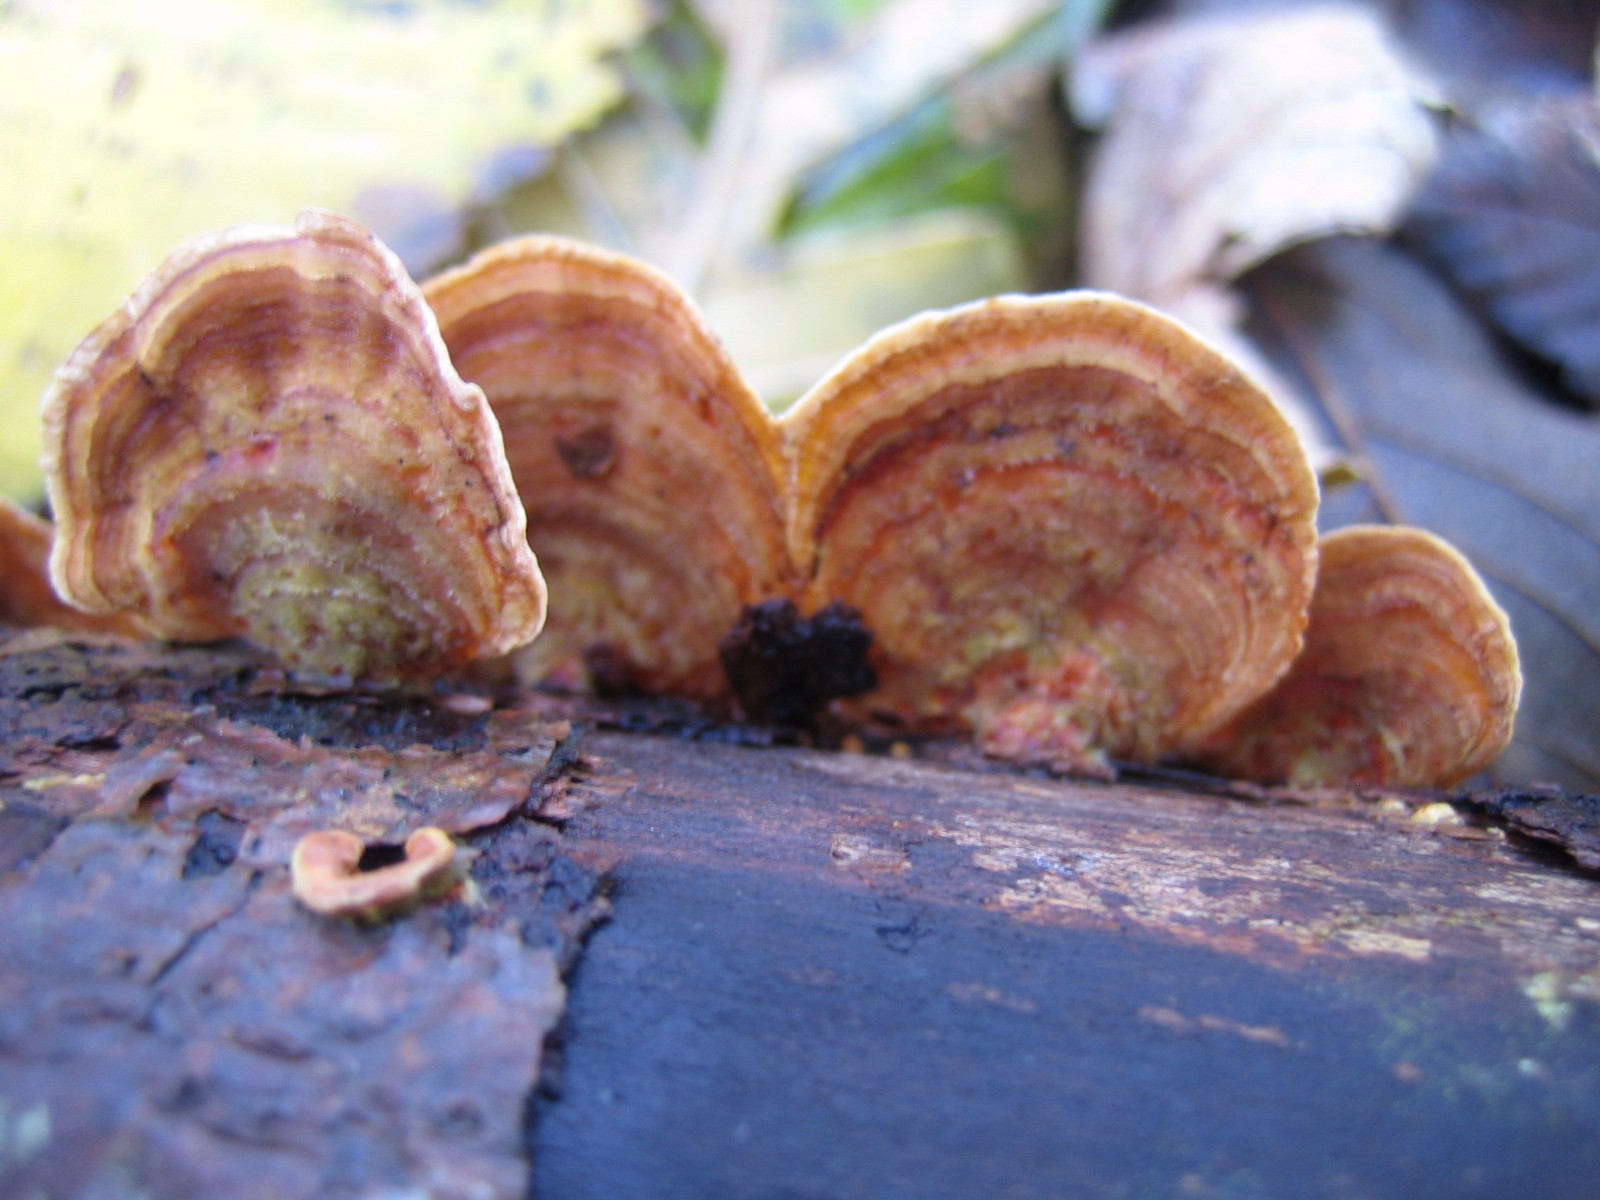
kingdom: Fungi
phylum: Basidiomycota
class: Agaricomycetes
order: Russulales
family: Stereaceae
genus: Stereum
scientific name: Stereum subtomentosum
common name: smuk lædersvamp
